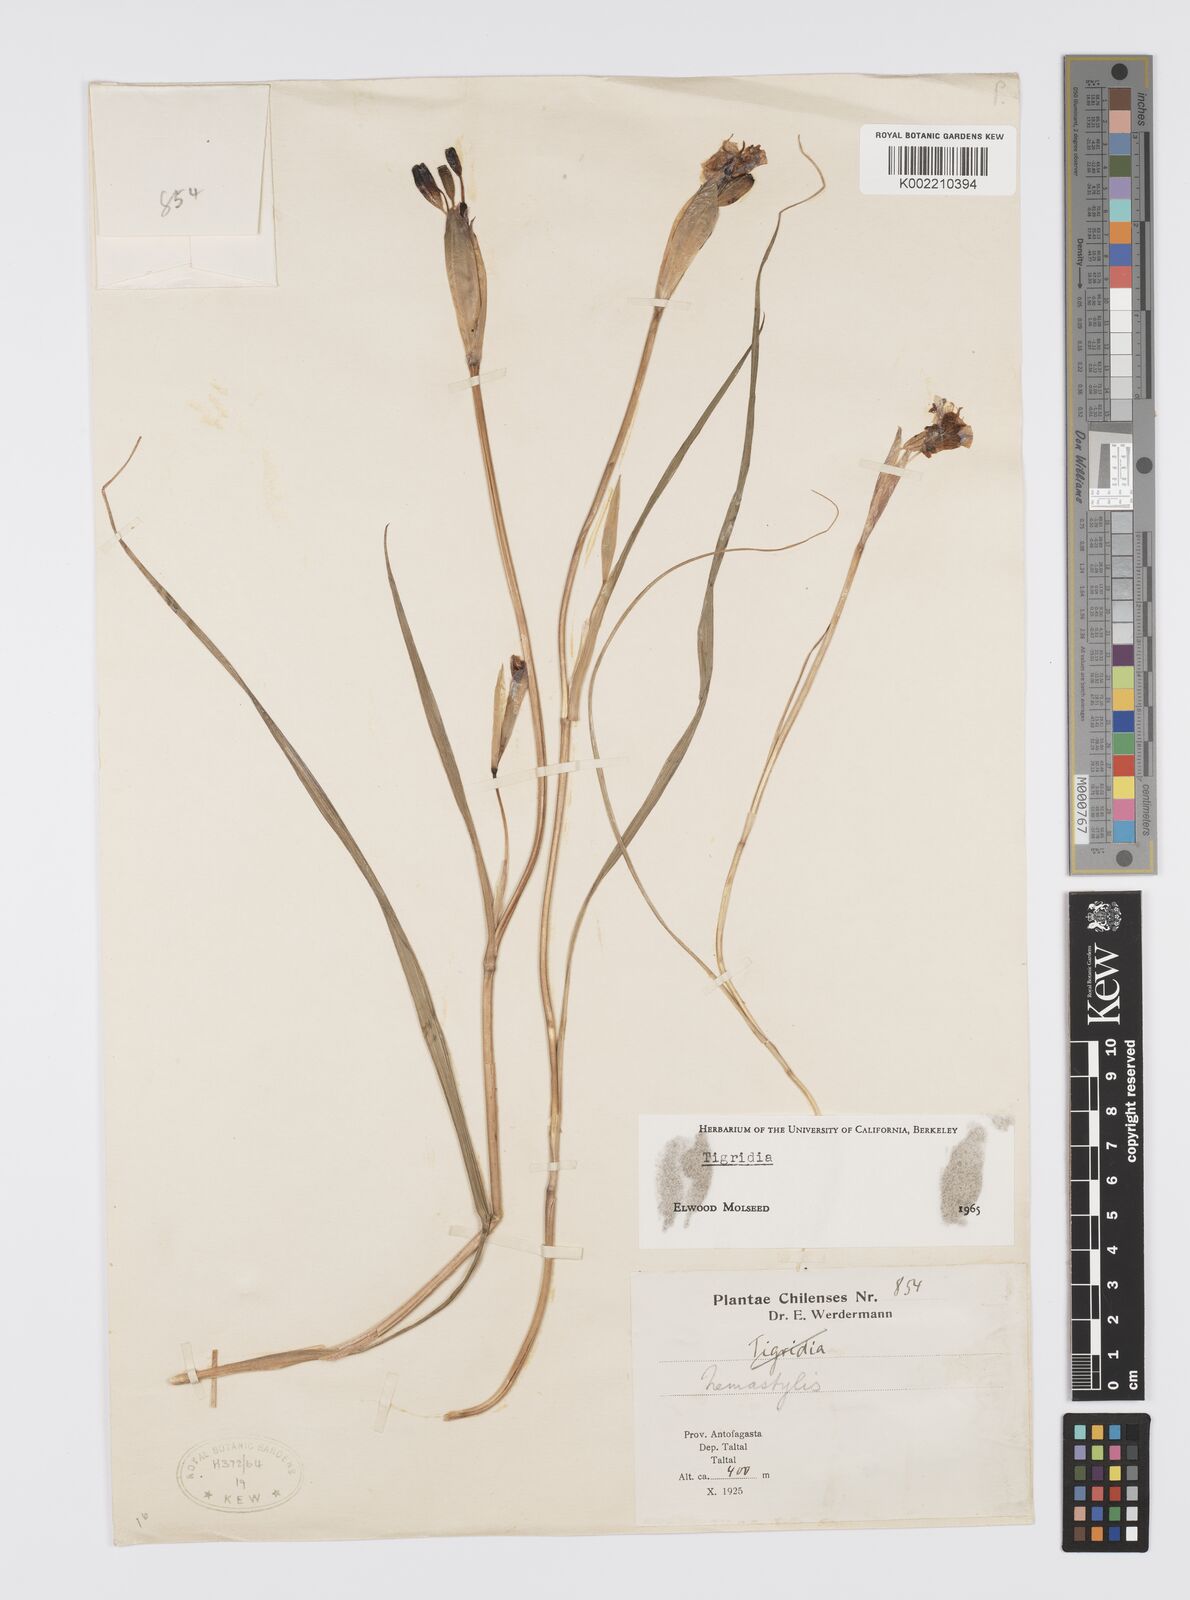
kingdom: Plantae
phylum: Tracheophyta
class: Liliopsida
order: Asparagales
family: Iridaceae
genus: Tigridia
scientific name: Tigridia
